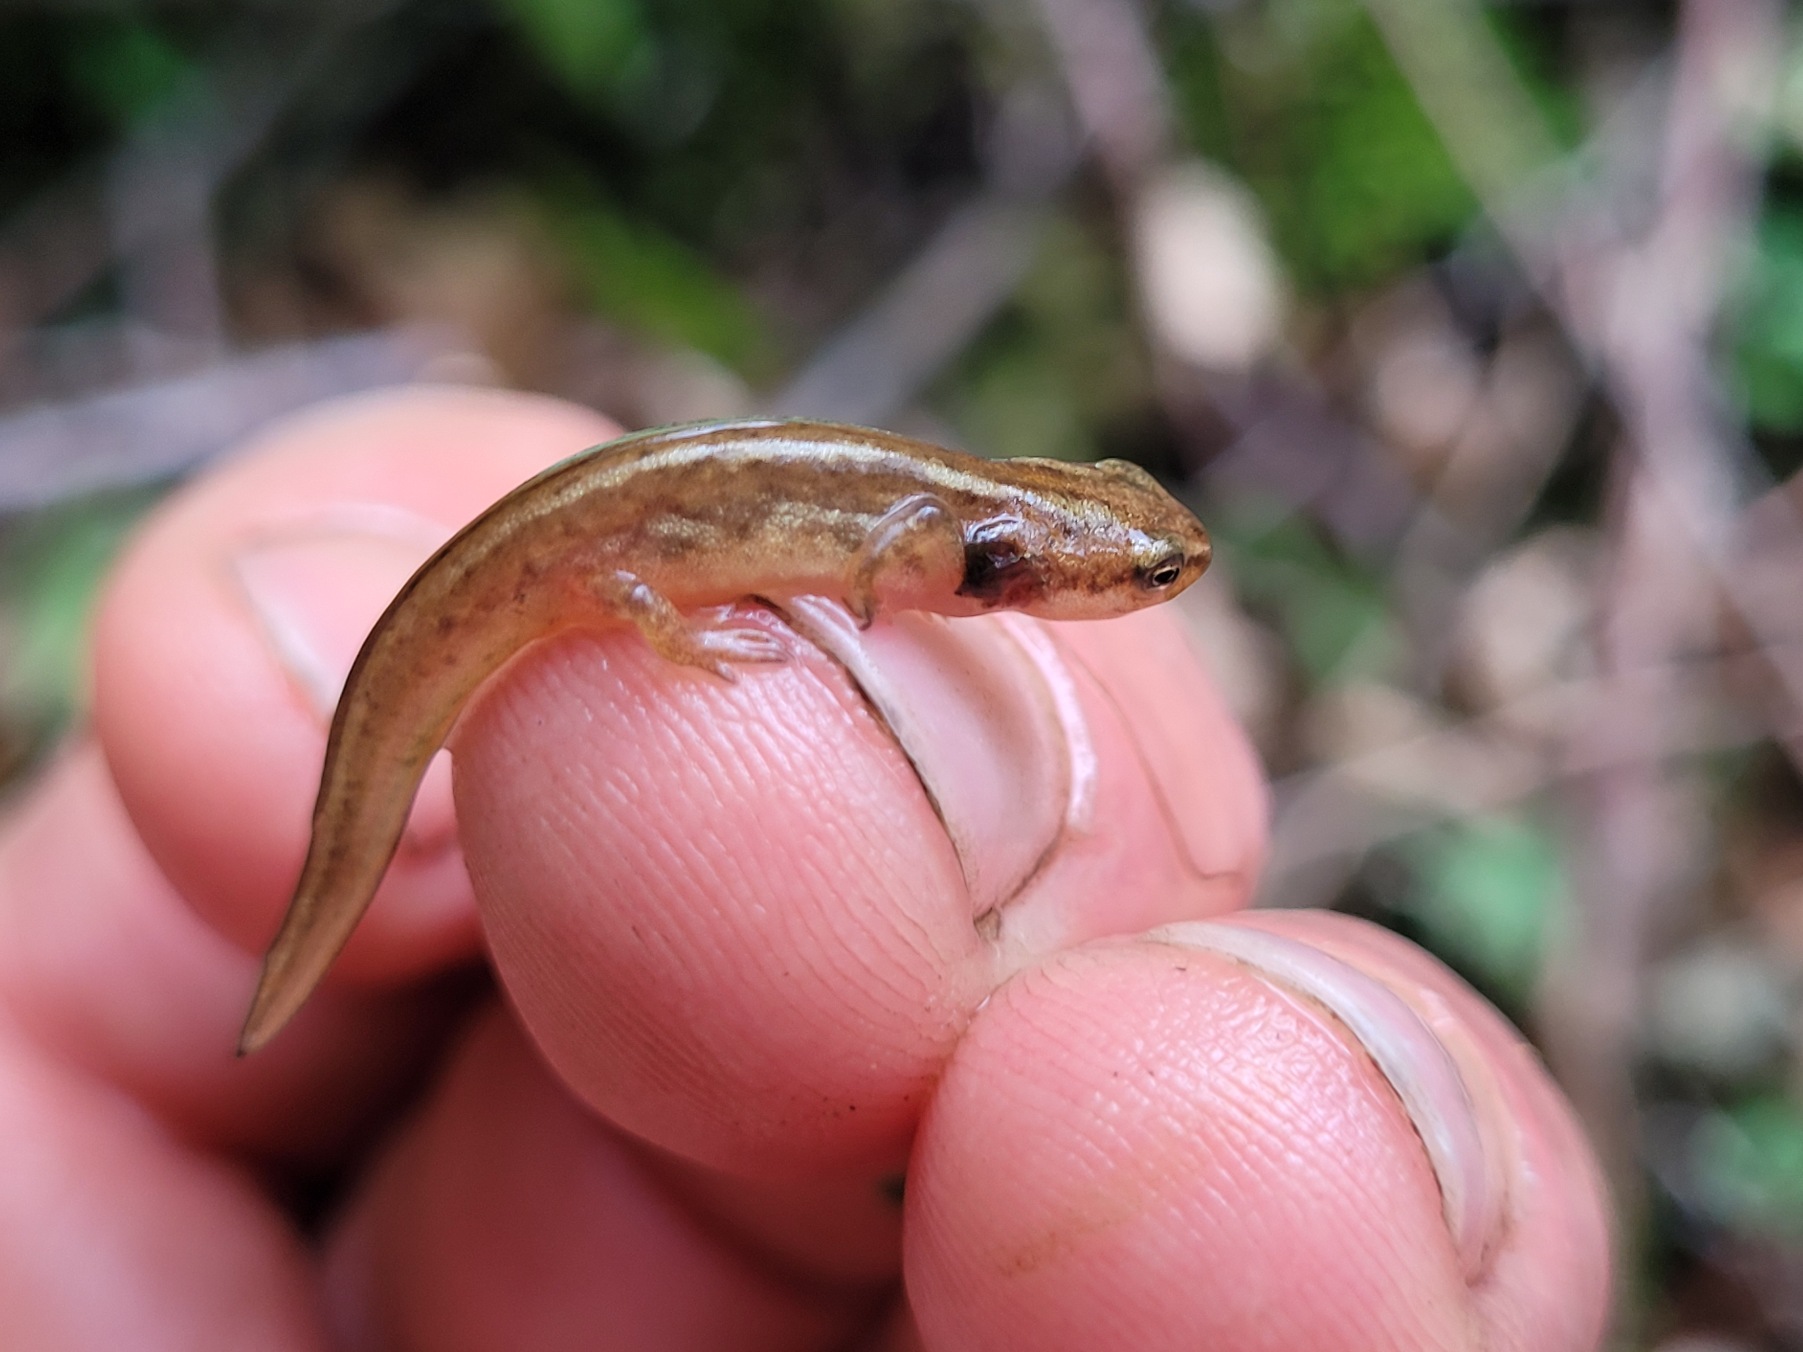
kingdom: Animalia
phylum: Chordata
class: Amphibia
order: Caudata
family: Salamandridae
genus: Lissotriton
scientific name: Lissotriton vulgaris
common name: Lille vandsalamander
